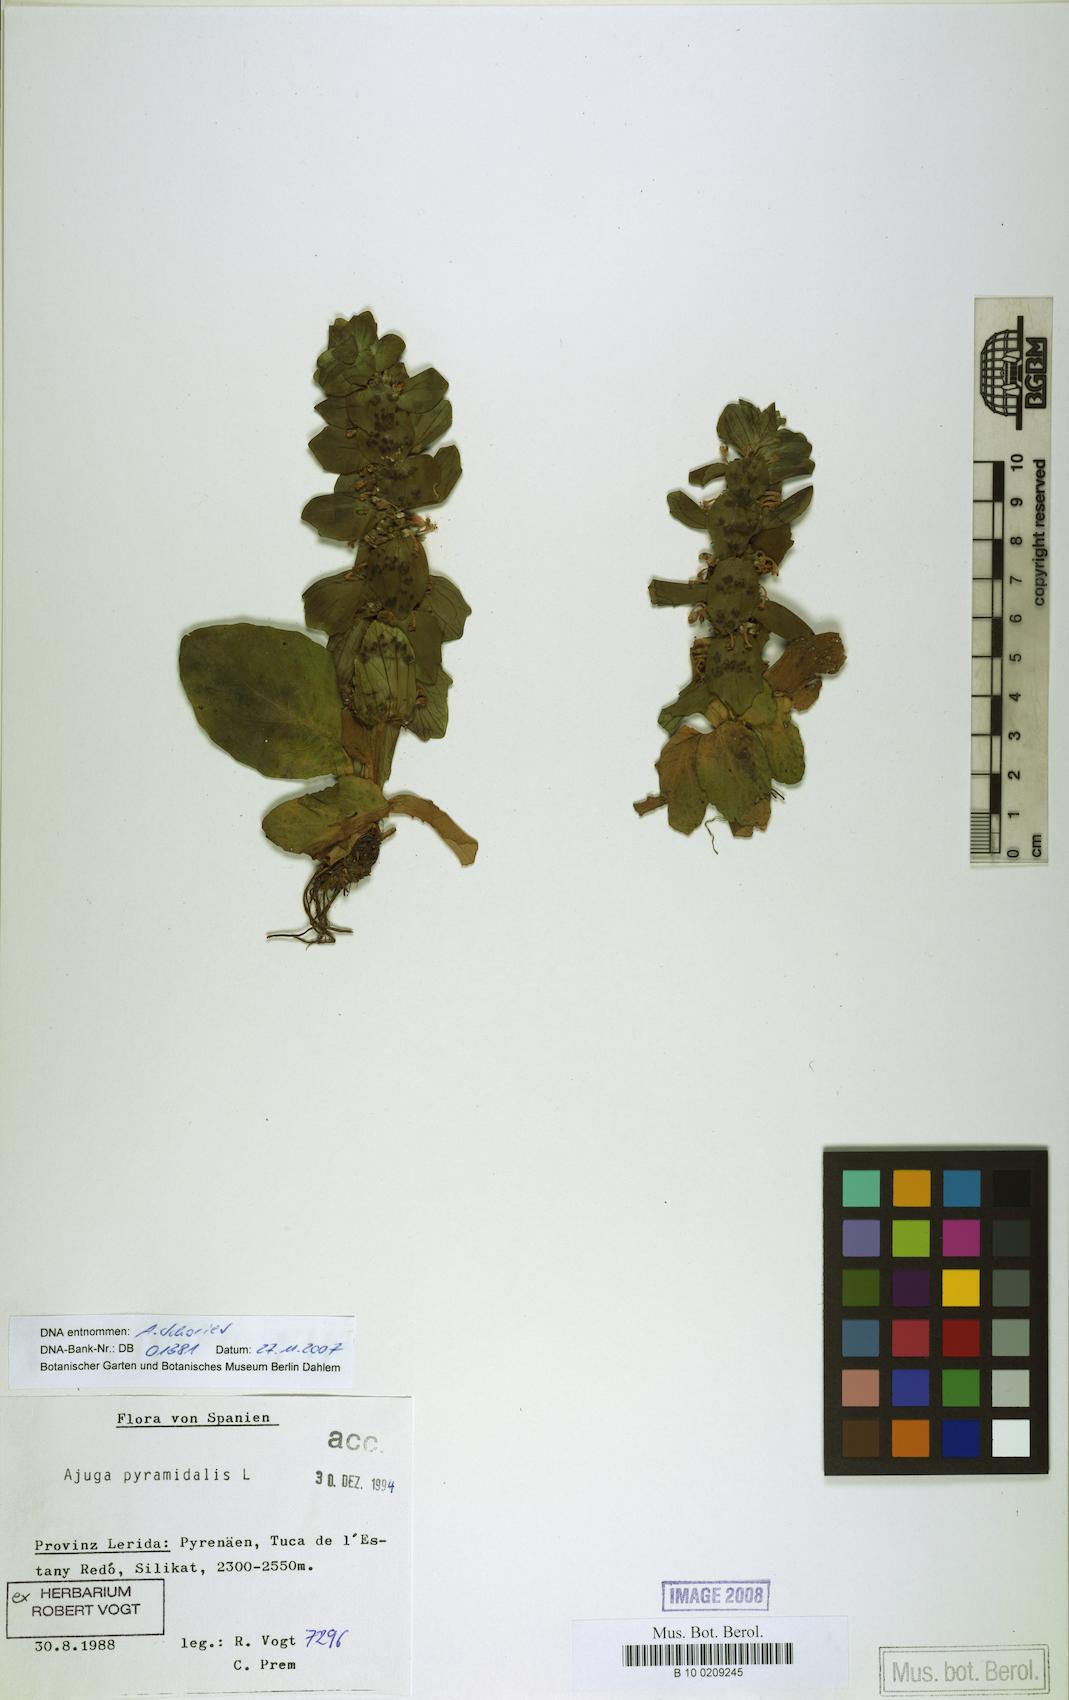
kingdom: Plantae
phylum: Tracheophyta
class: Magnoliopsida
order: Lamiales
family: Lamiaceae
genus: Ajuga
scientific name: Ajuga pyramidalis
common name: Pyramid bugle
